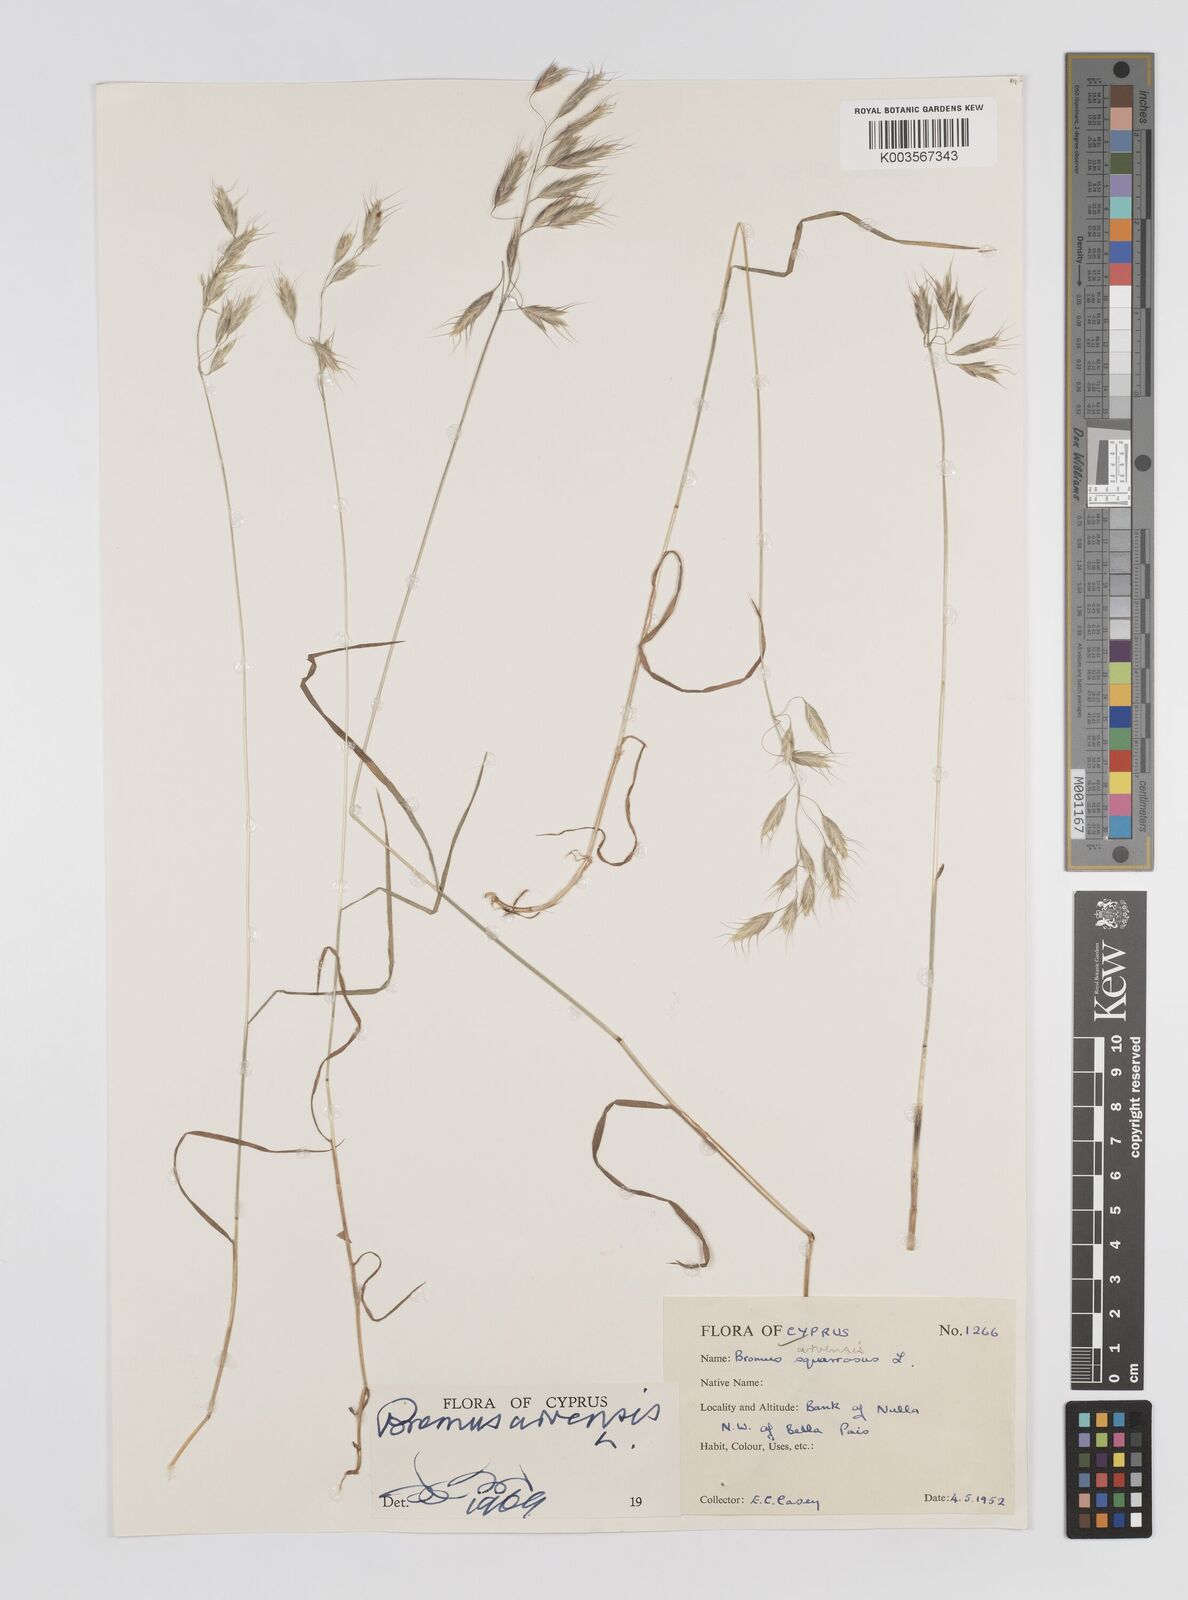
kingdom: Plantae
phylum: Tracheophyta
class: Liliopsida
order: Poales
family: Poaceae
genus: Bromus
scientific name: Bromus arvensis
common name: Field brome
